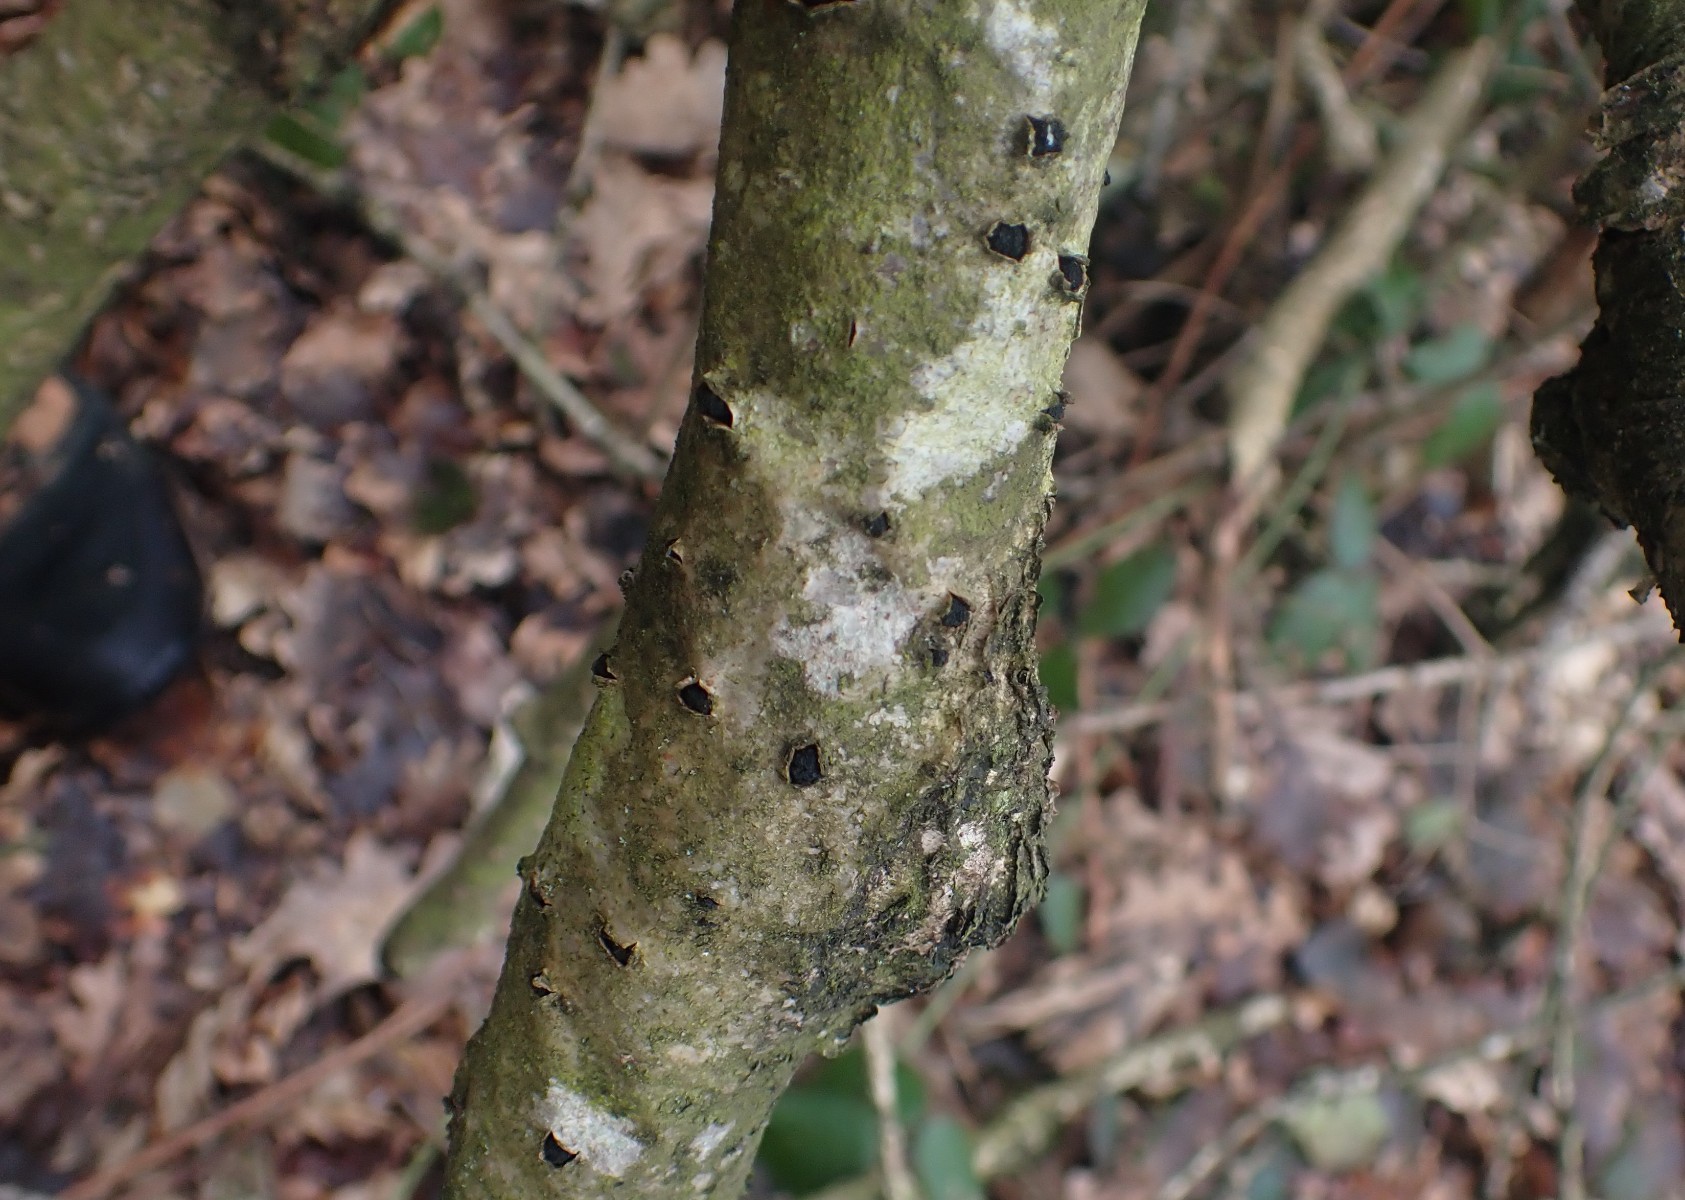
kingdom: Fungi
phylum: Ascomycota
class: Leotiomycetes
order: Leotiales
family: Tympanidaceae
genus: Tympanis
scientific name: Tympanis
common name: knippeskive
